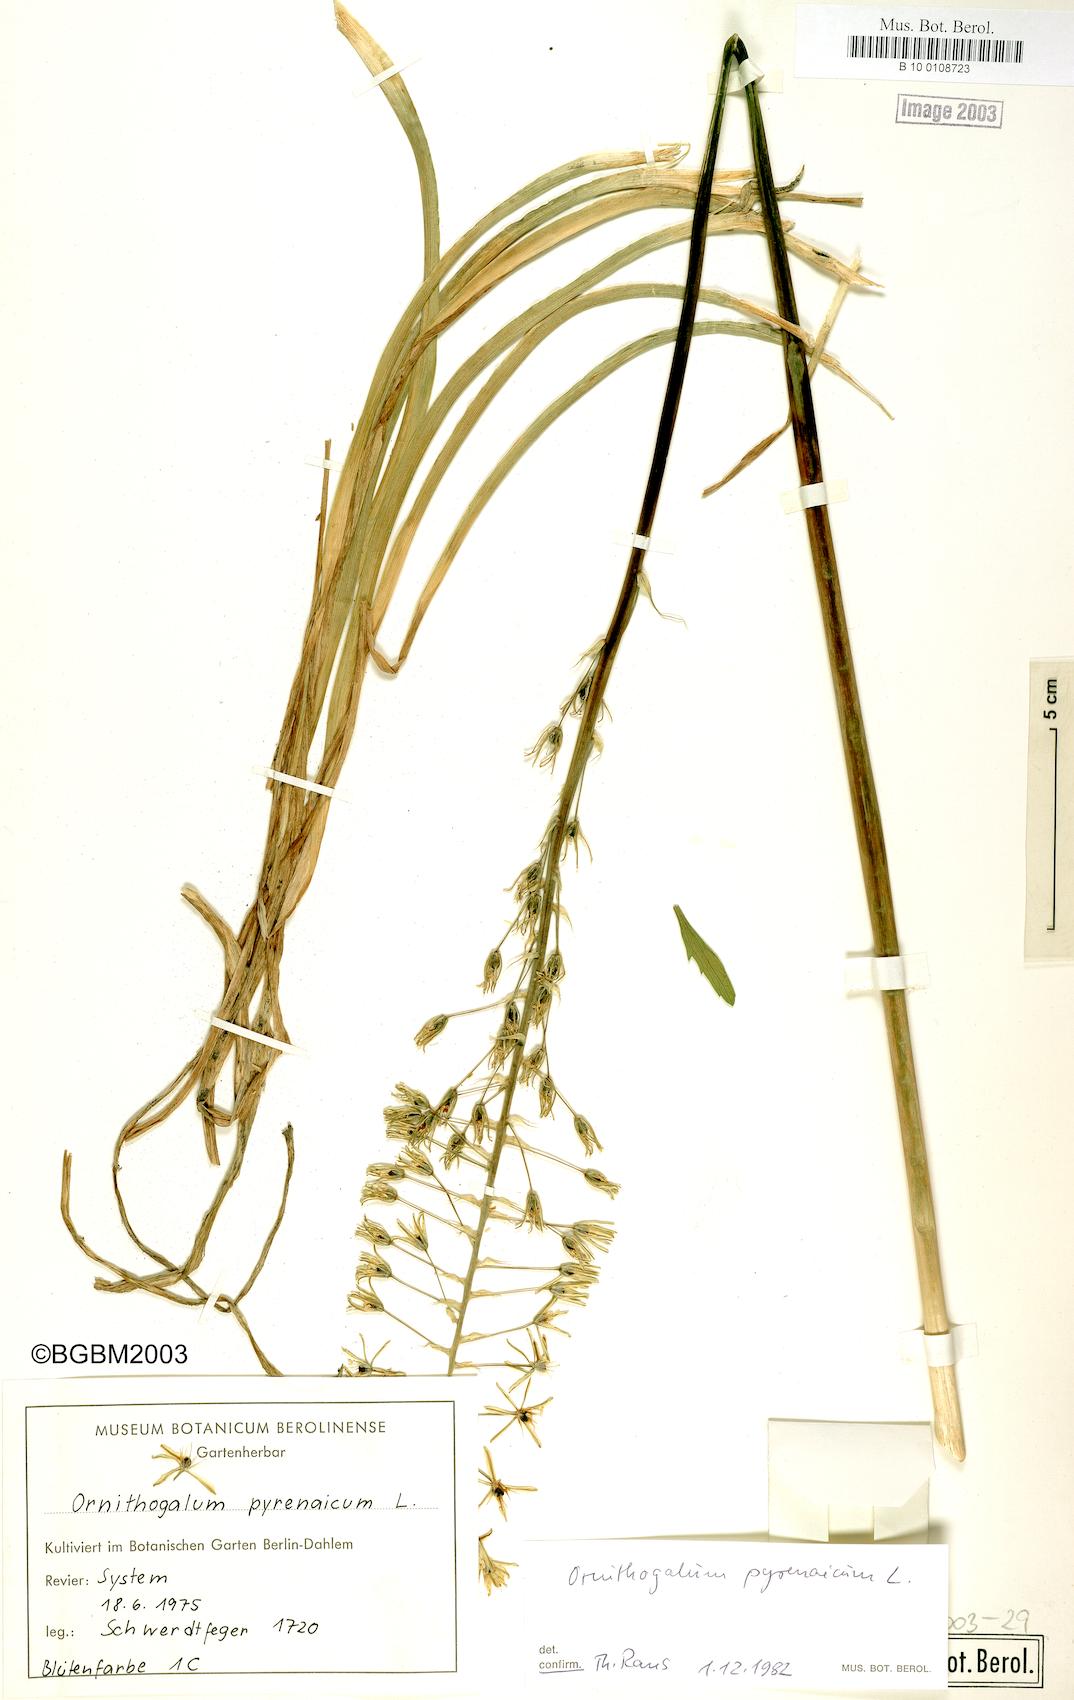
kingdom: Plantae
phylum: Tracheophyta
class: Liliopsida
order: Asparagales
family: Asparagaceae
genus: Ornithogalum
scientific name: Ornithogalum pyrenaicum
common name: Spiked star-of-bethlehem
